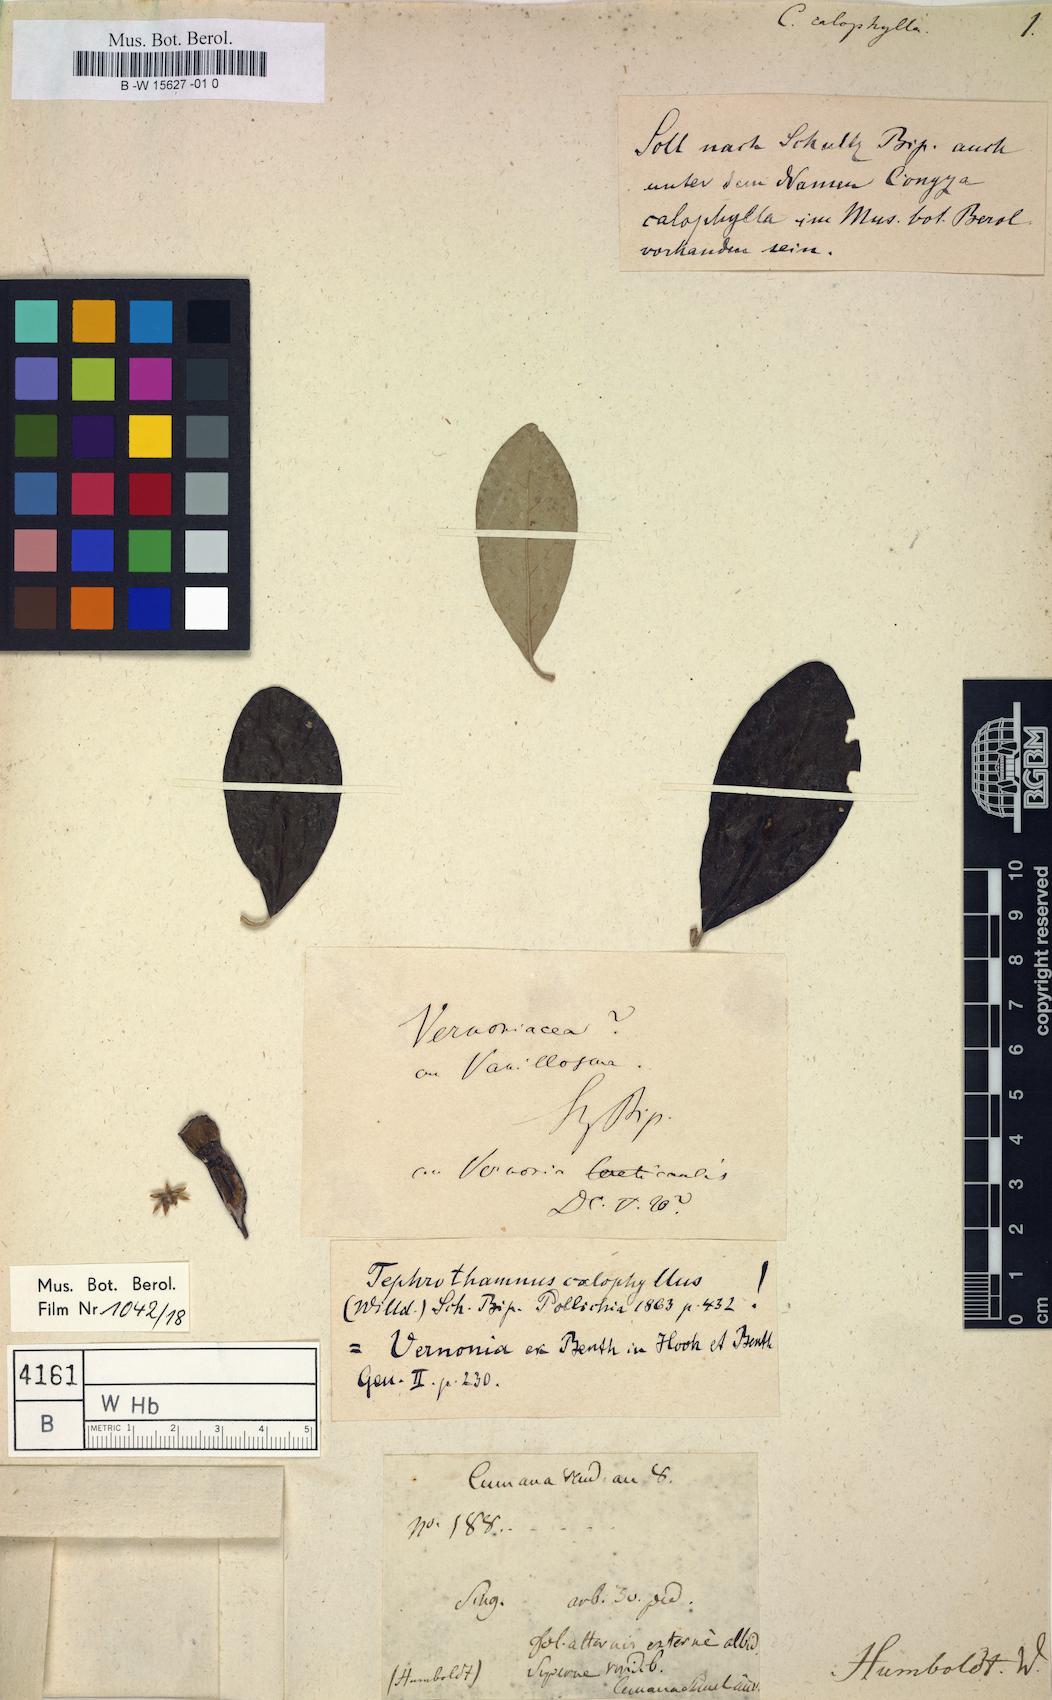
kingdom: Plantae
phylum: Tracheophyta
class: Magnoliopsida
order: Asterales
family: Asteraceae
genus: Moquiniastrum
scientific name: Moquiniastrum oligocephalum
